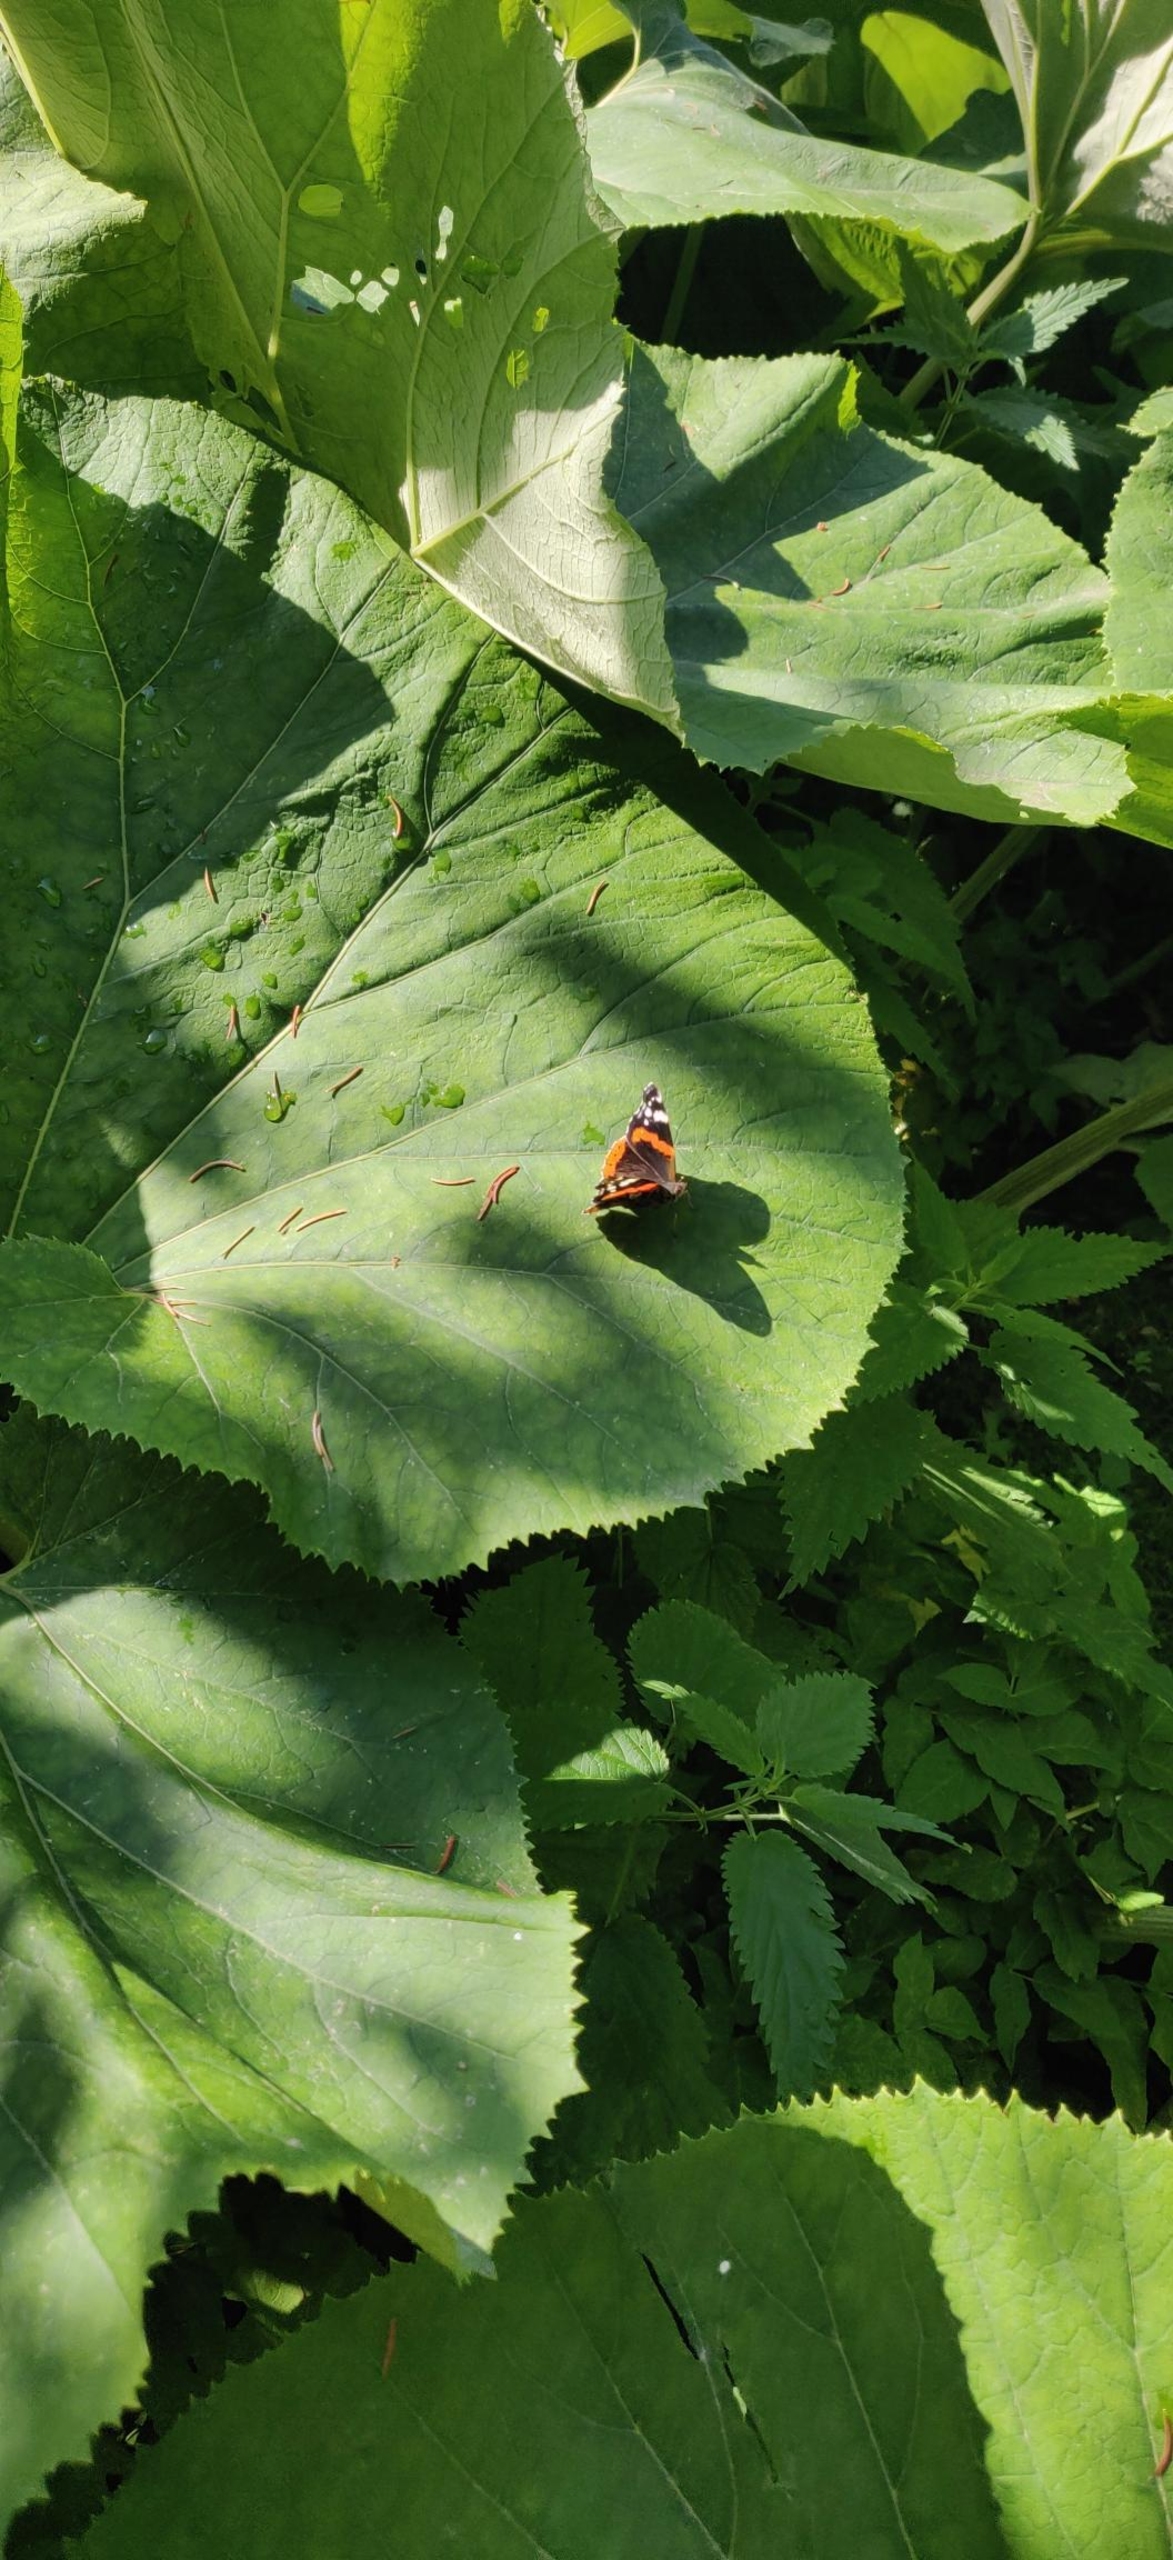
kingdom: Animalia
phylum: Arthropoda
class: Insecta
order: Lepidoptera
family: Nymphalidae
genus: Vanessa
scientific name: Vanessa atalanta
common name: Admiral
